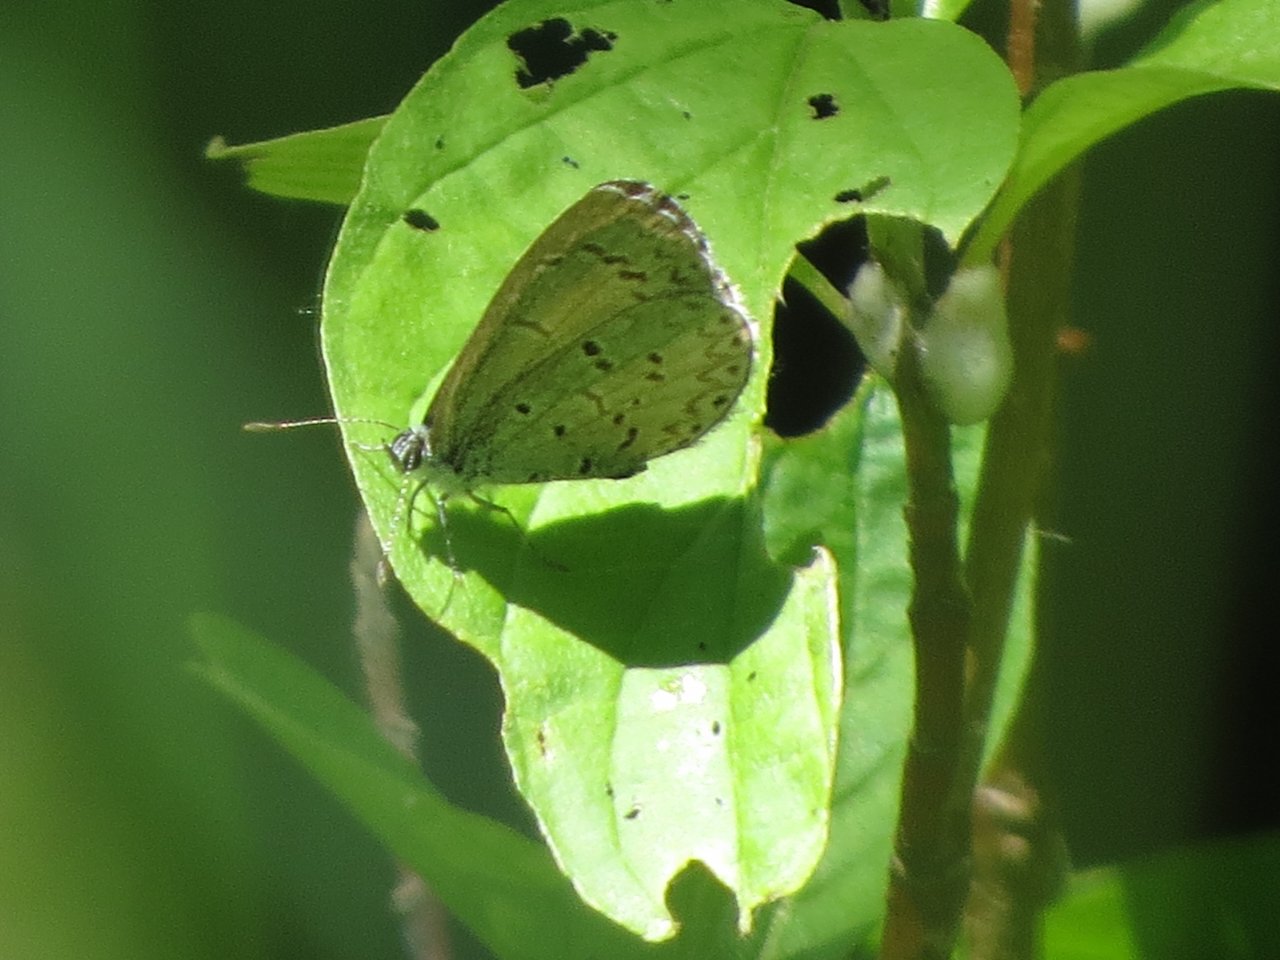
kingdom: Animalia
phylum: Arthropoda
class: Insecta
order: Lepidoptera
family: Lycaenidae
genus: Celastrina
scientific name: Celastrina lucia
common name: Northern Spring Azure
